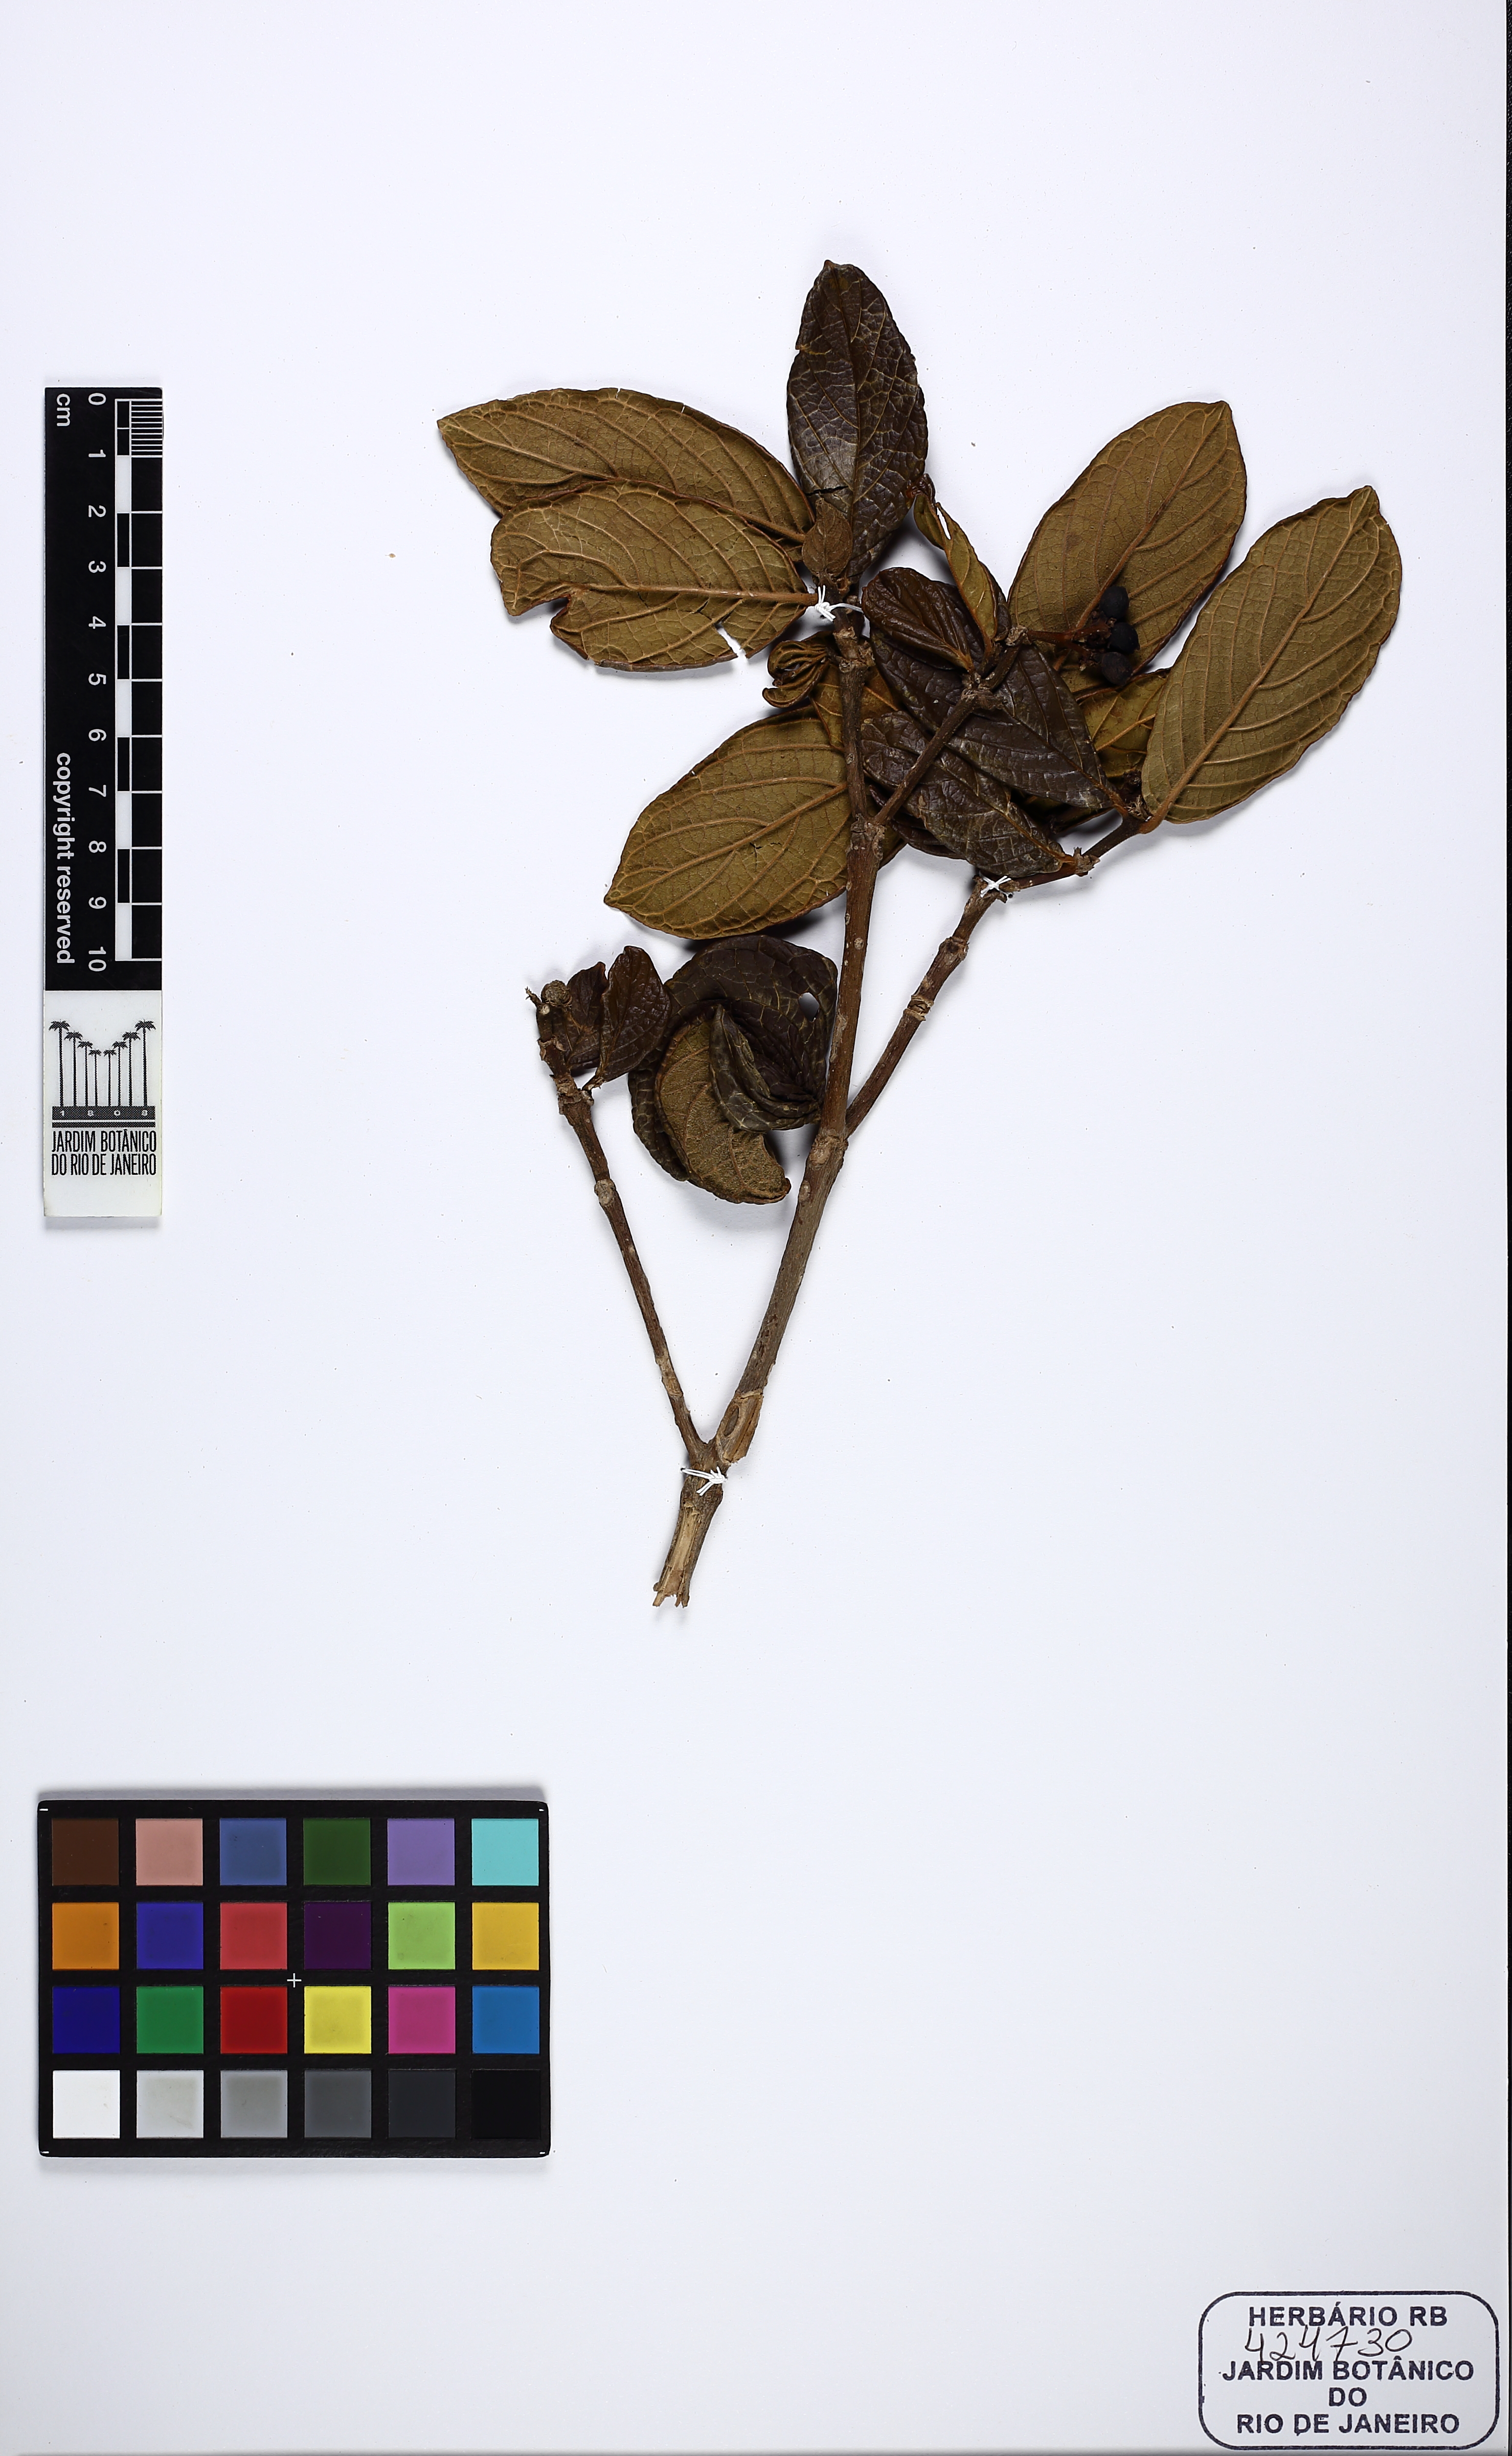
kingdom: Plantae
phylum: Tracheophyta
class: Magnoliopsida
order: Gentianales
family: Rubiaceae
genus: Rudgea
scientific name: Rudgea viburnoides
